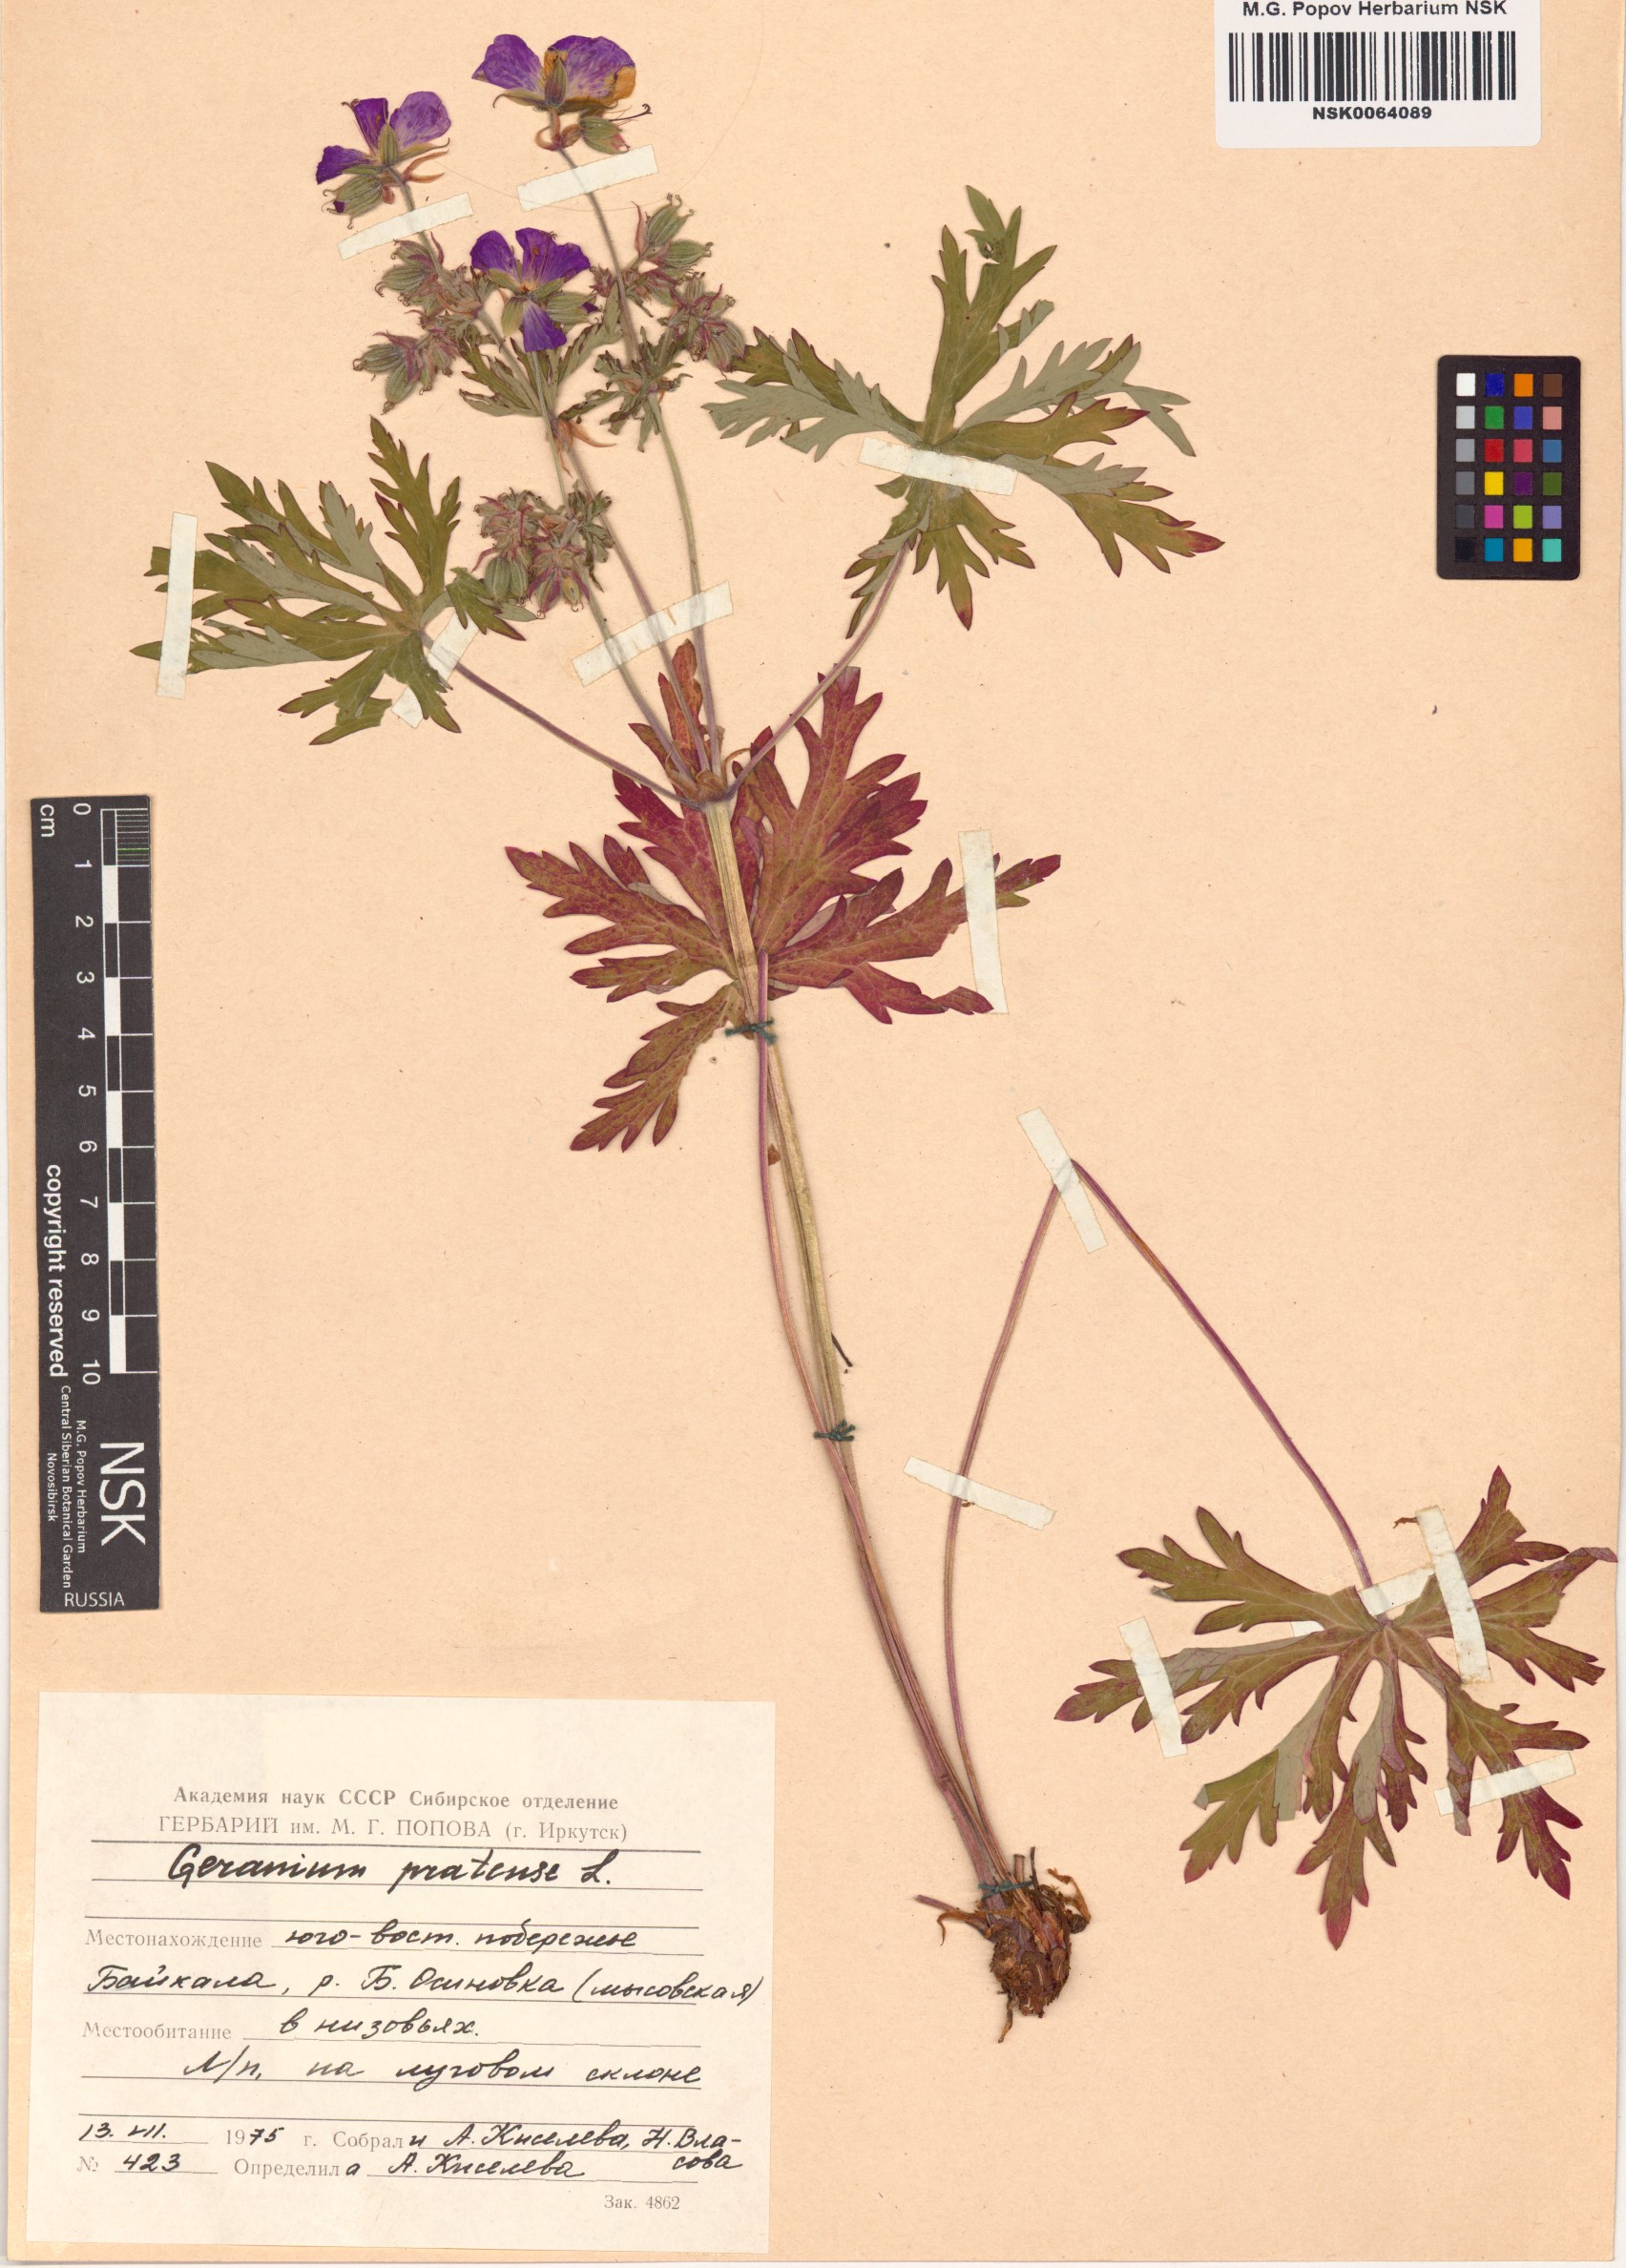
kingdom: Plantae
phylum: Tracheophyta
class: Magnoliopsida
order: Geraniales
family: Geraniaceae
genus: Geranium
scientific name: Geranium pratense
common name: Meadow crane's-bill
